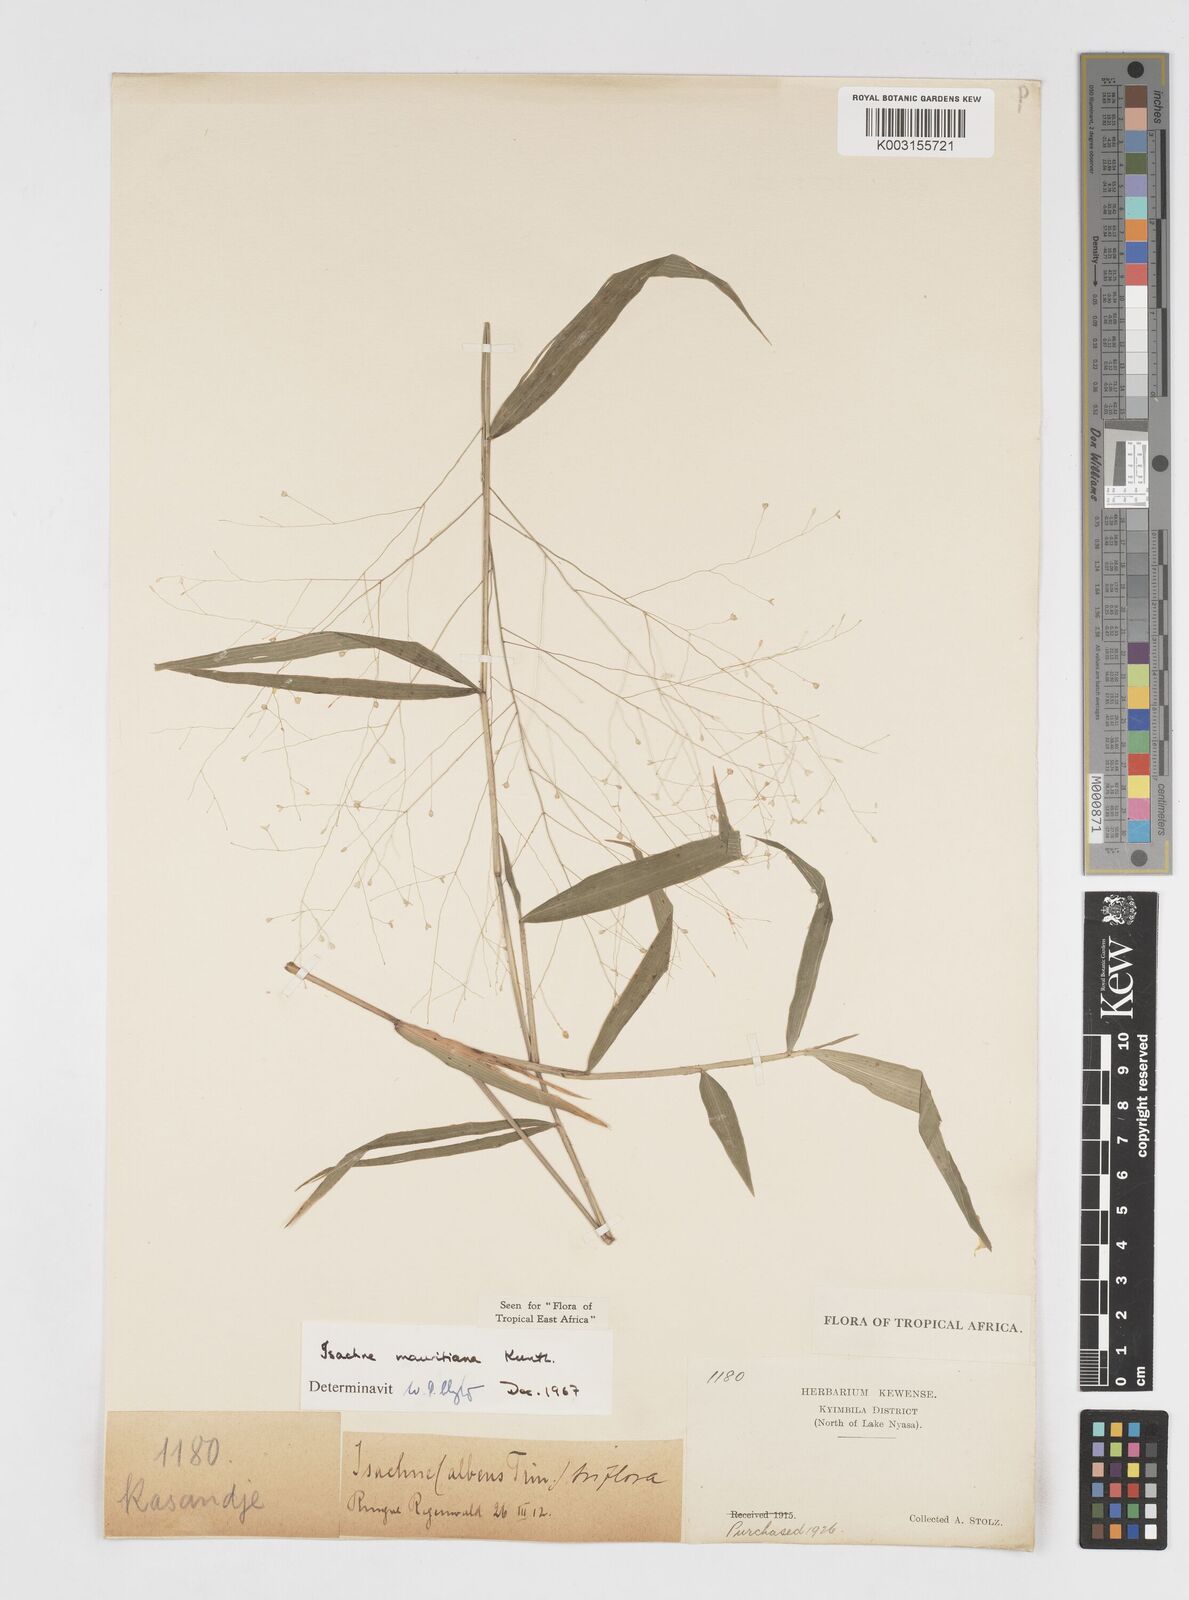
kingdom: Plantae
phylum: Tracheophyta
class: Liliopsida
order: Poales
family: Poaceae
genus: Isachne
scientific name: Isachne mauritiana
